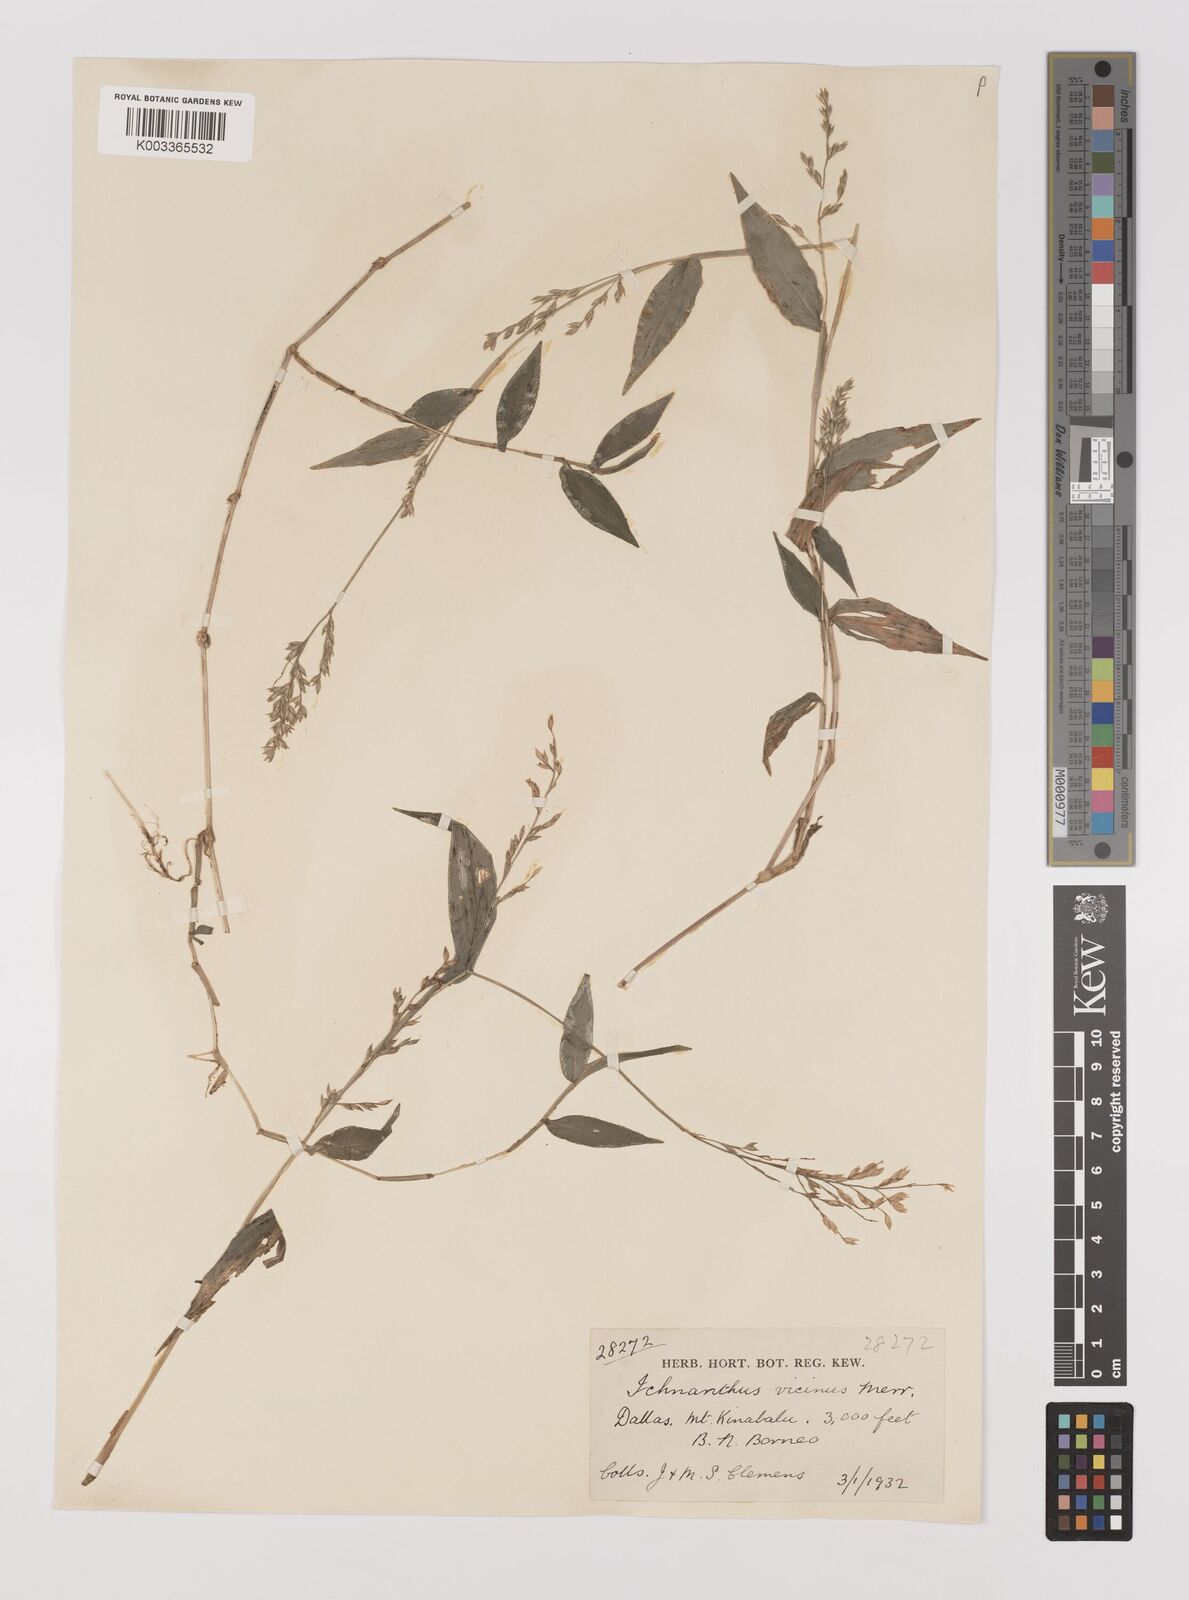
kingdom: Plantae
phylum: Tracheophyta
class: Liliopsida
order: Poales
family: Poaceae
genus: Ichnanthus
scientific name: Ichnanthus pallens
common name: Water grass
